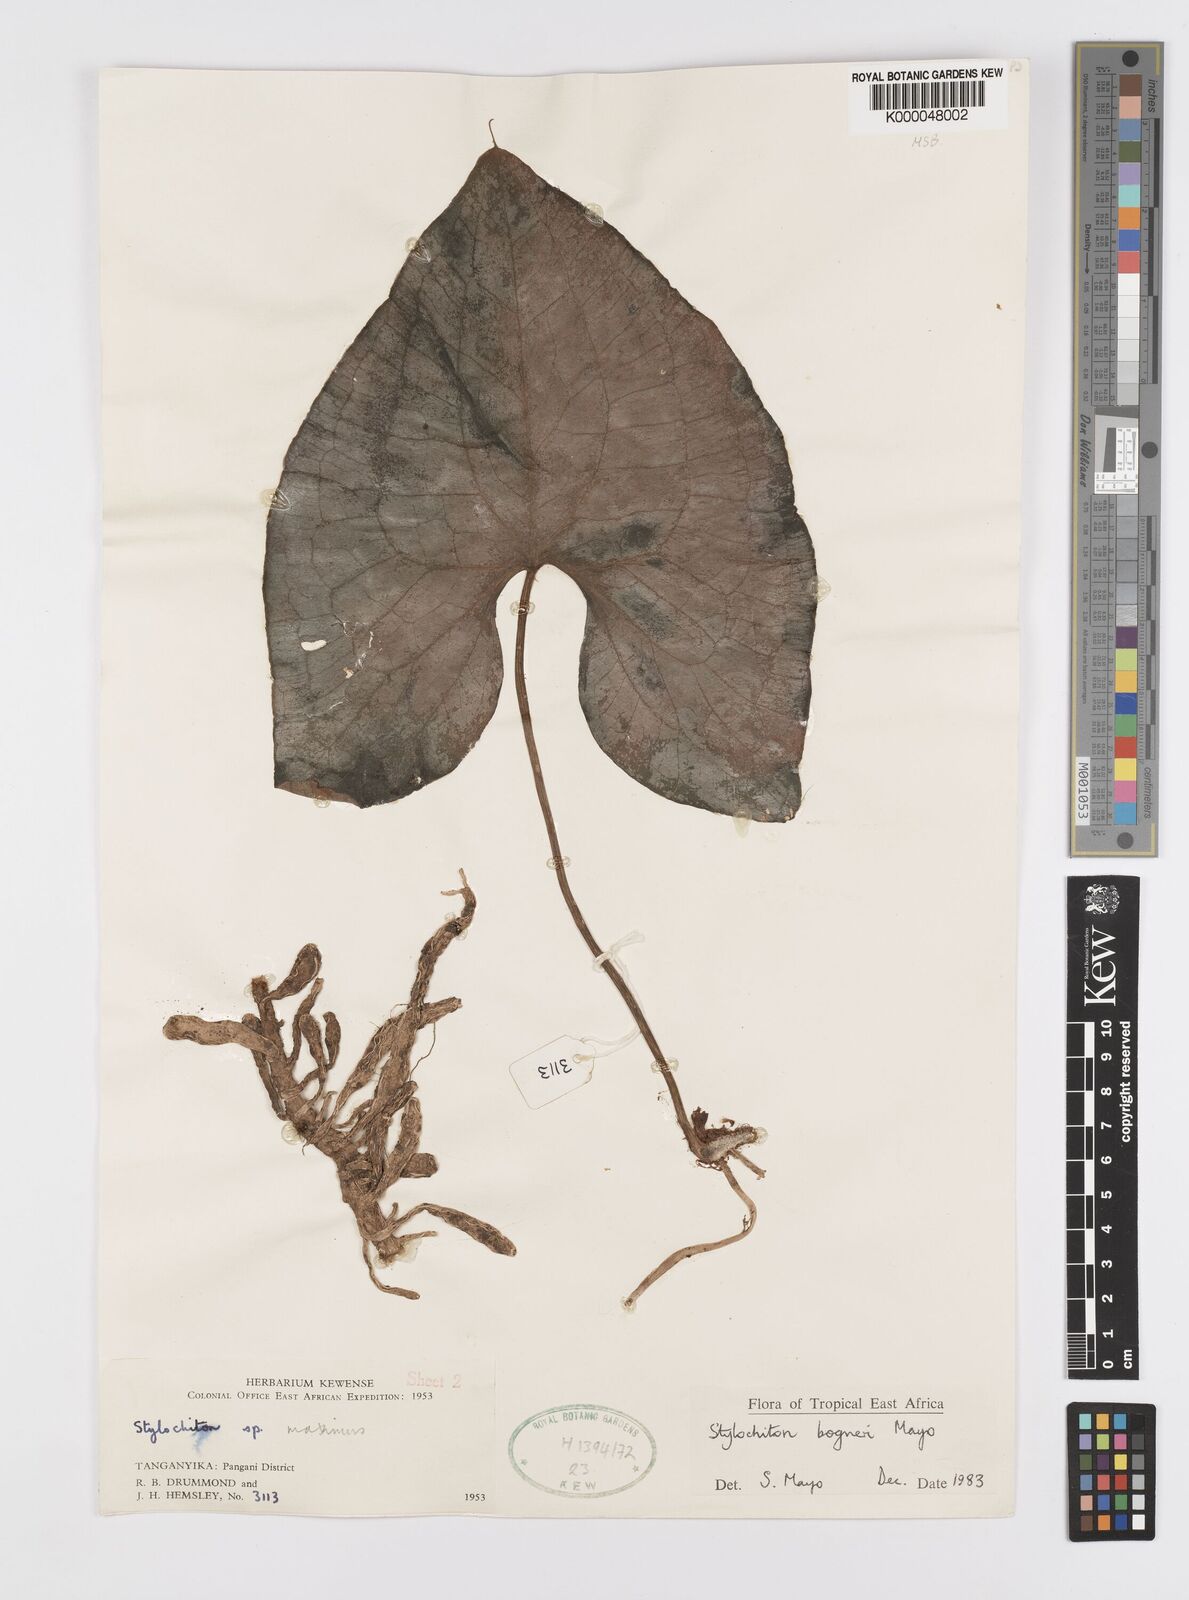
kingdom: Plantae
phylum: Tracheophyta
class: Liliopsida
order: Alismatales
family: Araceae
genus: Stylochaeton
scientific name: Stylochaeton bogneri
